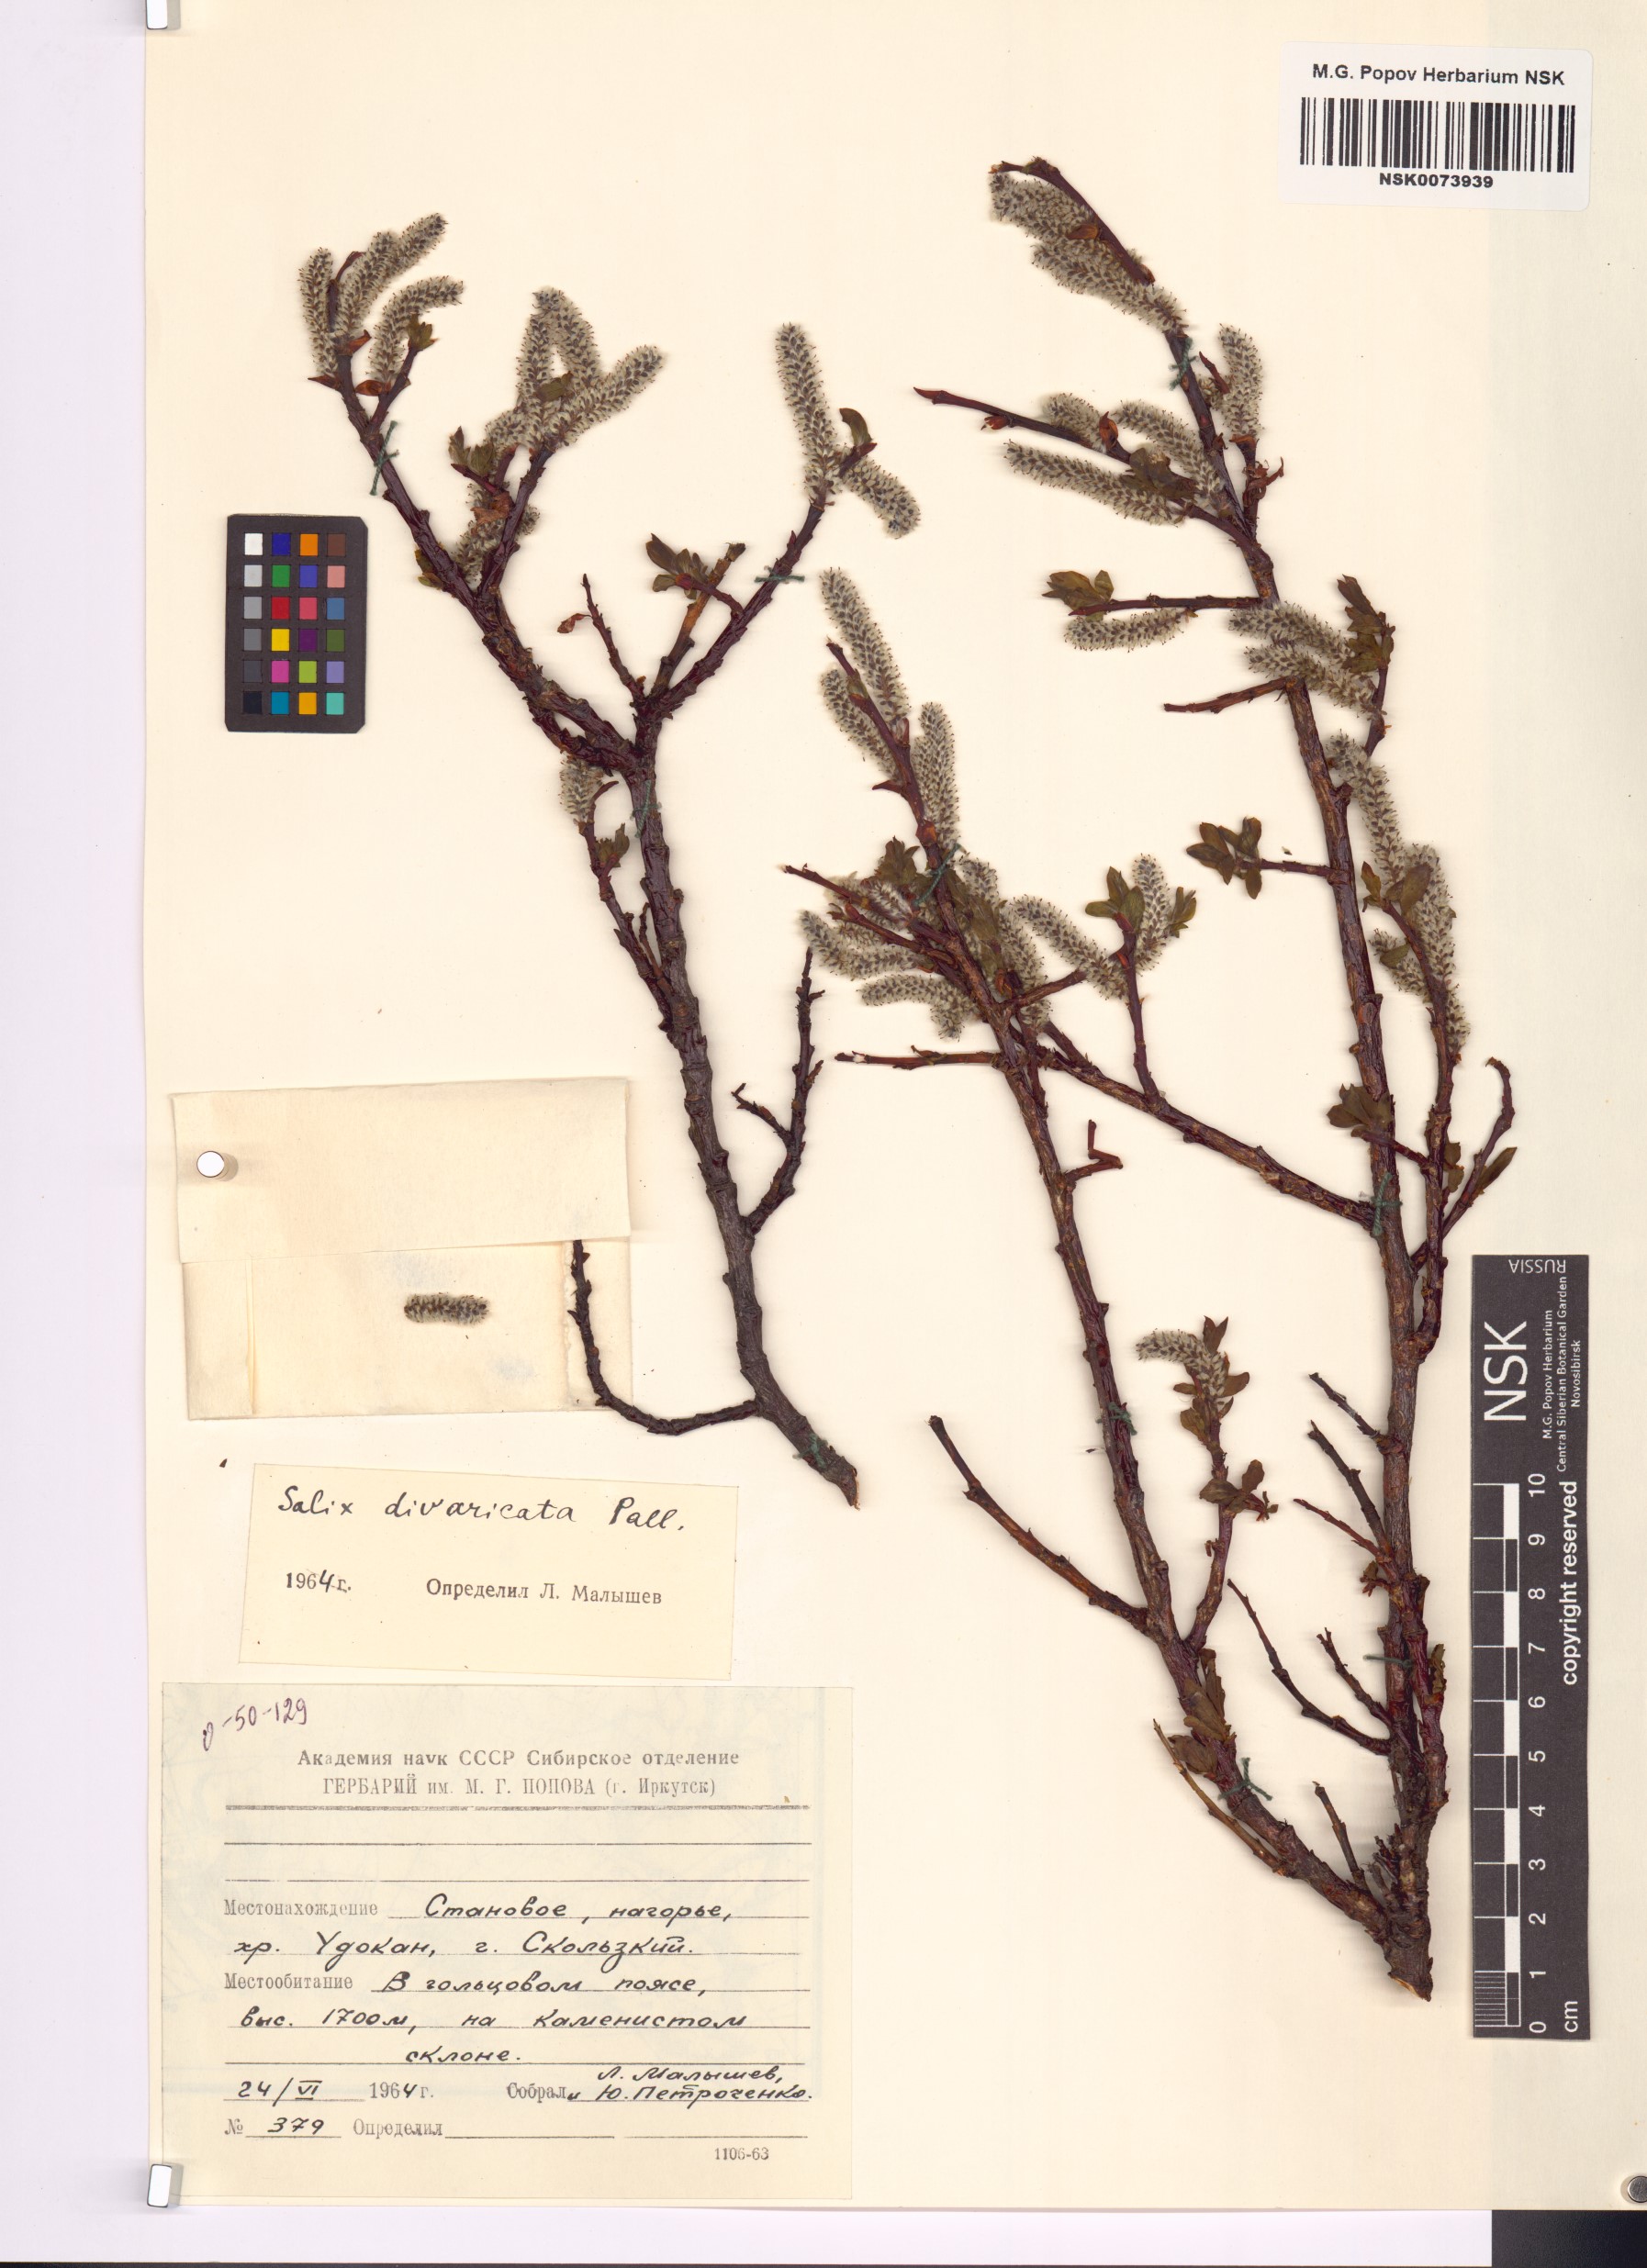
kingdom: Plantae
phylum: Tracheophyta
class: Magnoliopsida
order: Malpighiales
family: Salicaceae
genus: Salix
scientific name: Salix divaricata
